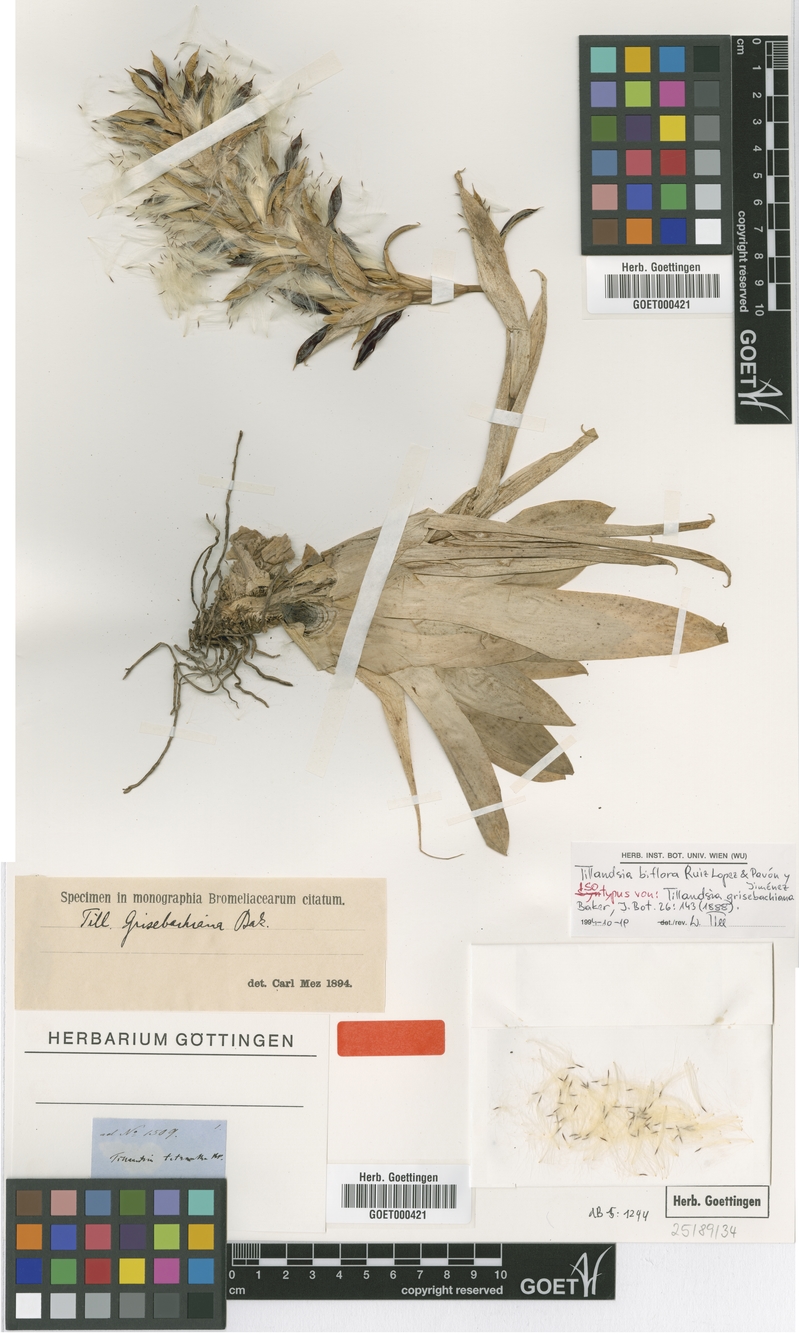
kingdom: Plantae
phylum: Tracheophyta
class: Liliopsida
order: Poales
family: Bromeliaceae
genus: Tillandsia
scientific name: Tillandsia biflora
